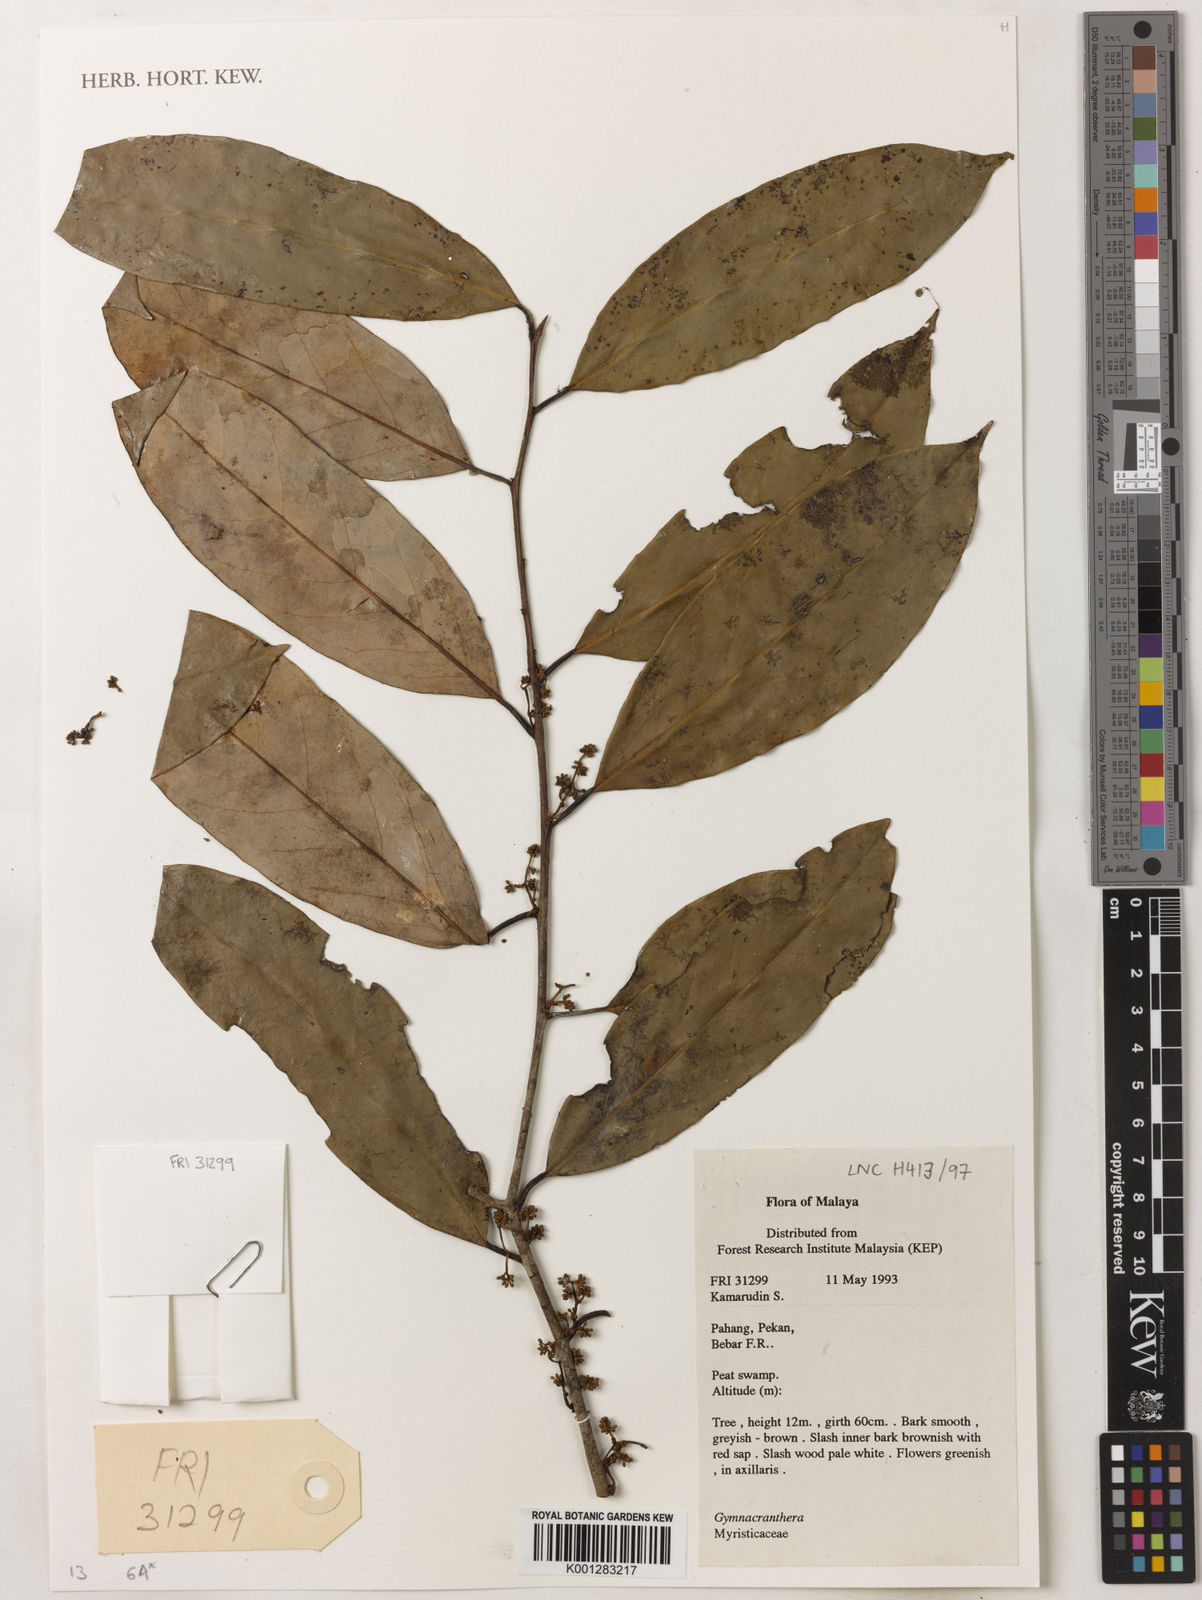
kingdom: Plantae
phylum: Tracheophyta
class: Magnoliopsida
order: Magnoliales
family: Myristicaceae
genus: Gymnacranthera
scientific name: Gymnacranthera
